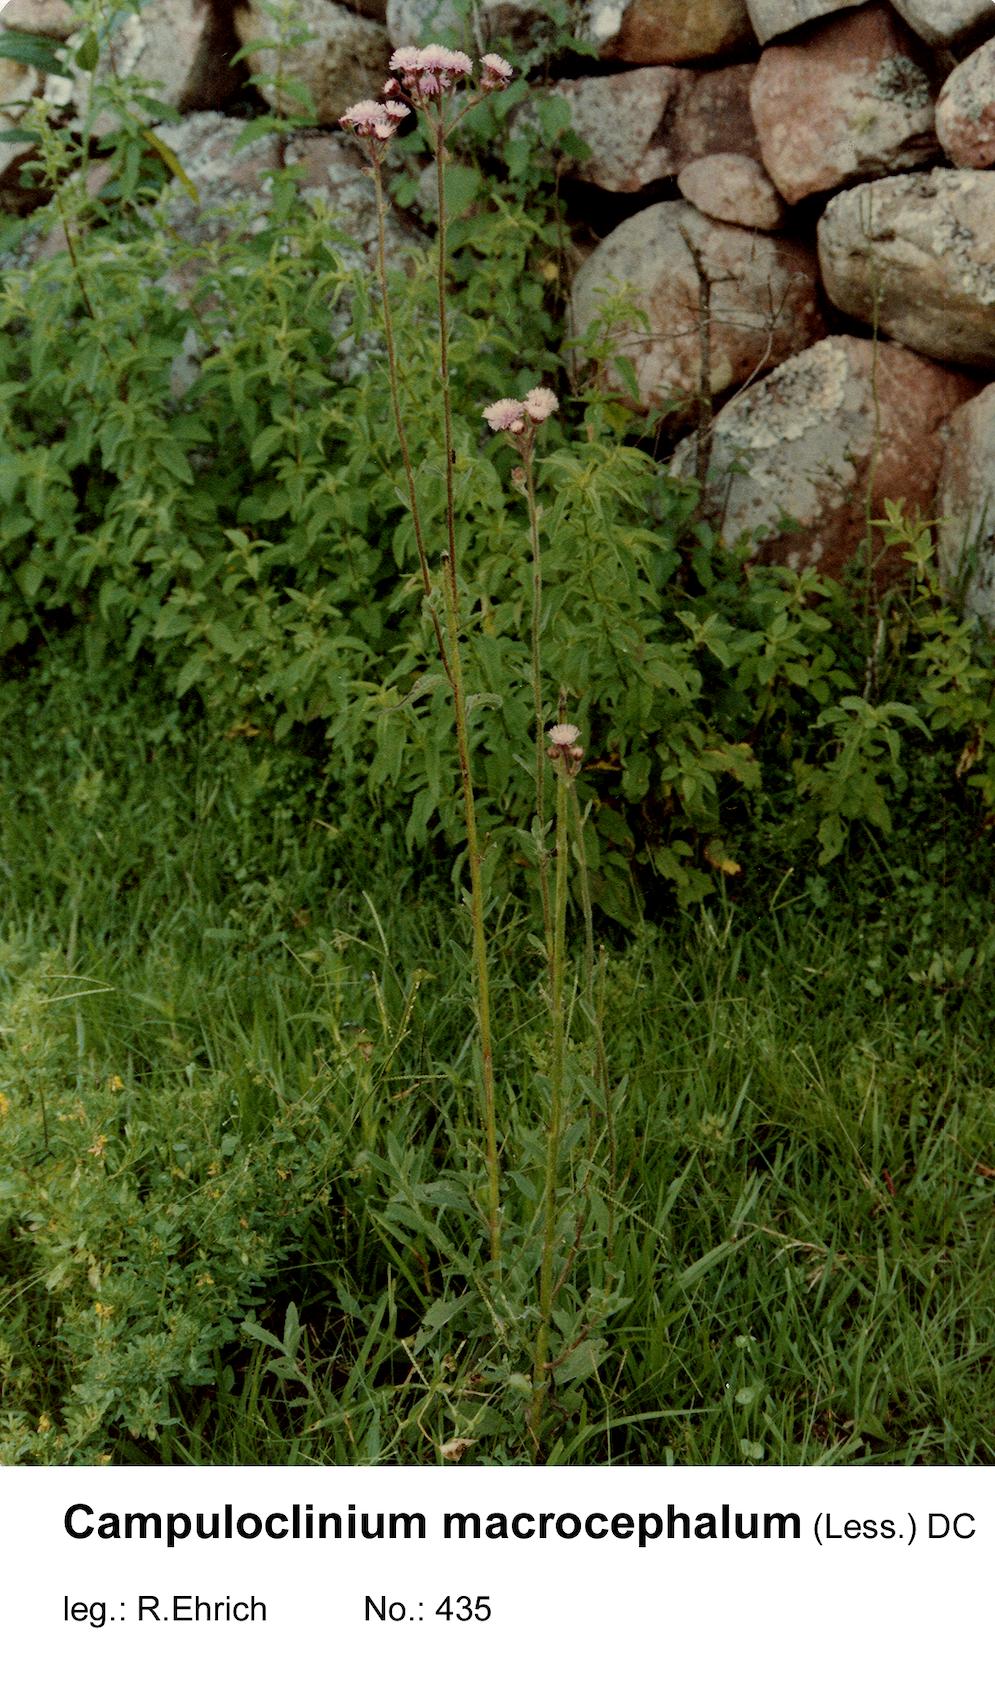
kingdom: Plantae
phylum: Tracheophyta
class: Magnoliopsida
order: Asterales
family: Asteraceae
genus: Campuloclinium
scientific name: Campuloclinium macrocephalum
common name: Pompomweed
